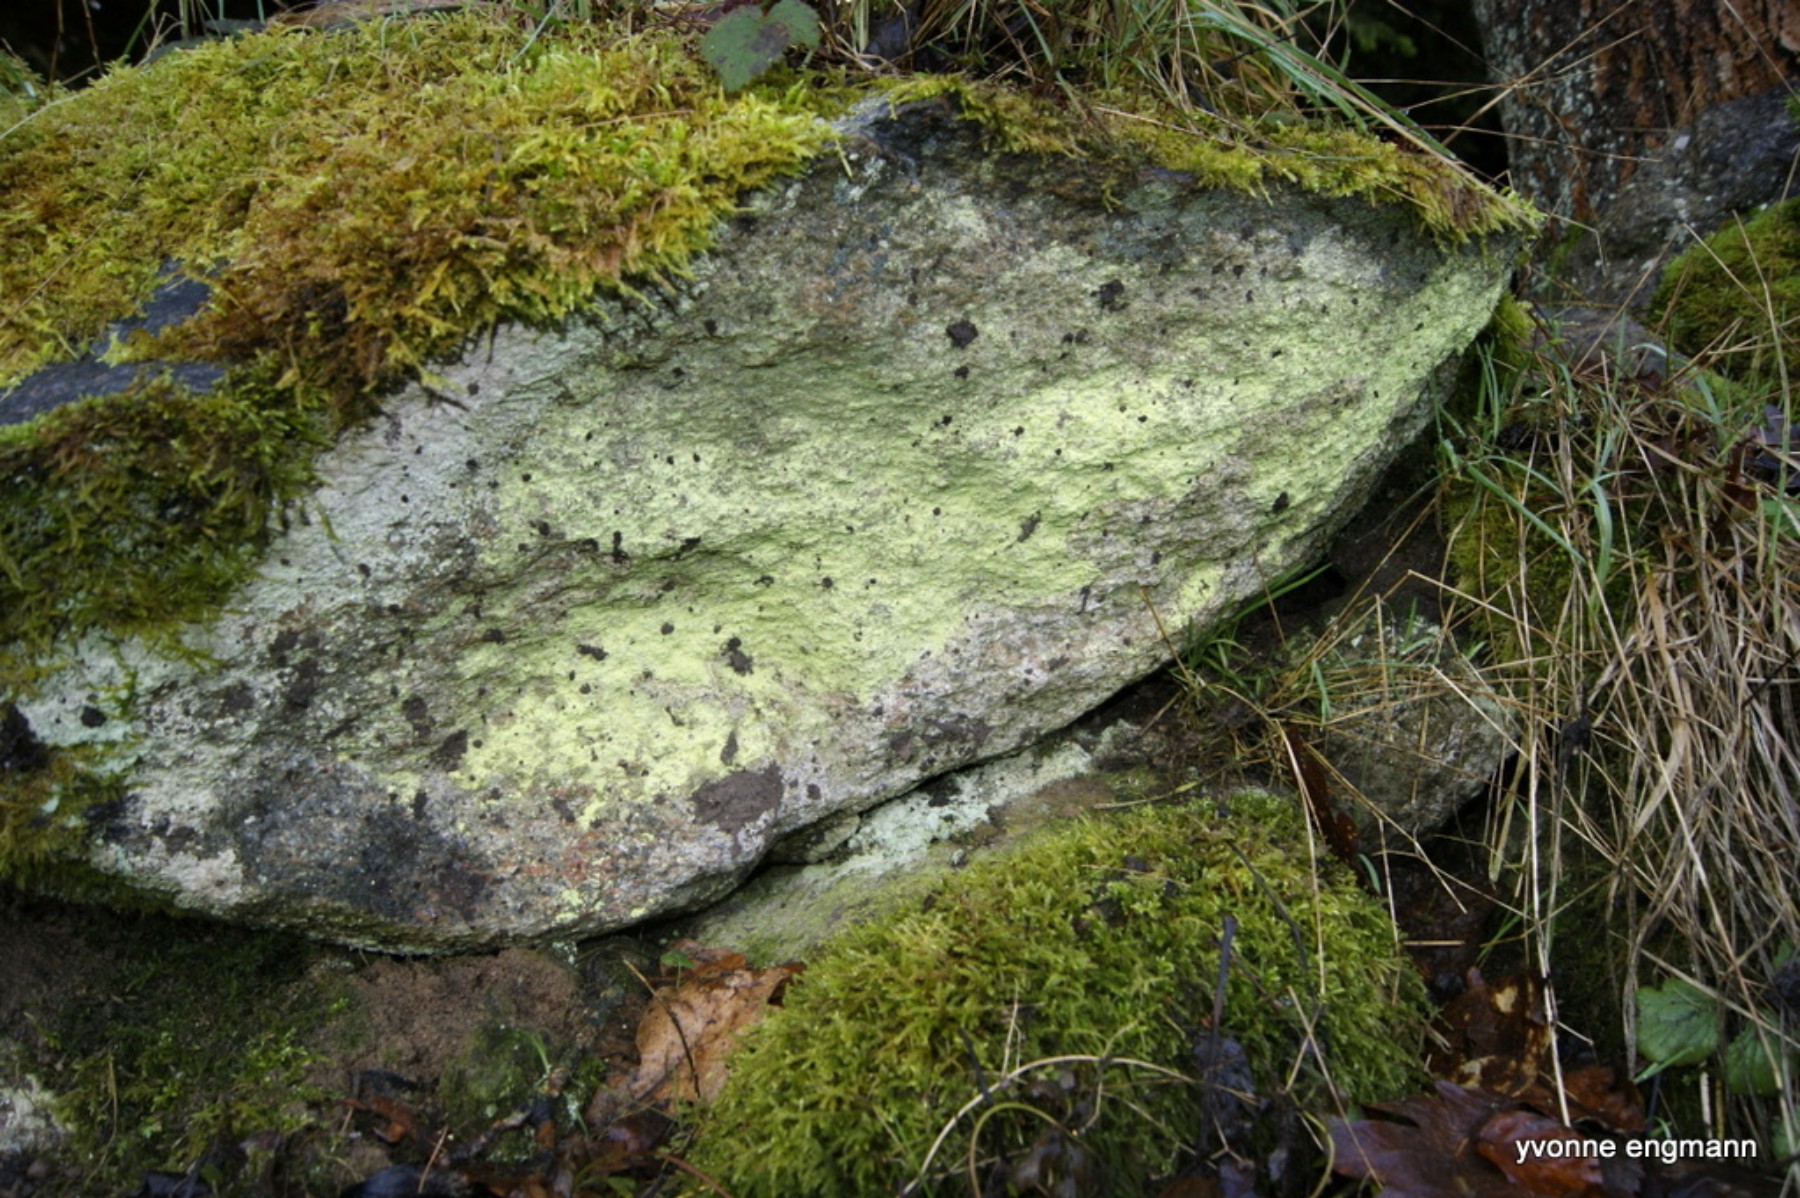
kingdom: Fungi
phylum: Ascomycota
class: Lecanoromycetes
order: Lecanorales
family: Psilolechiaceae
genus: Psilolechia
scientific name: Psilolechia lucida
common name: gul skyggelav
